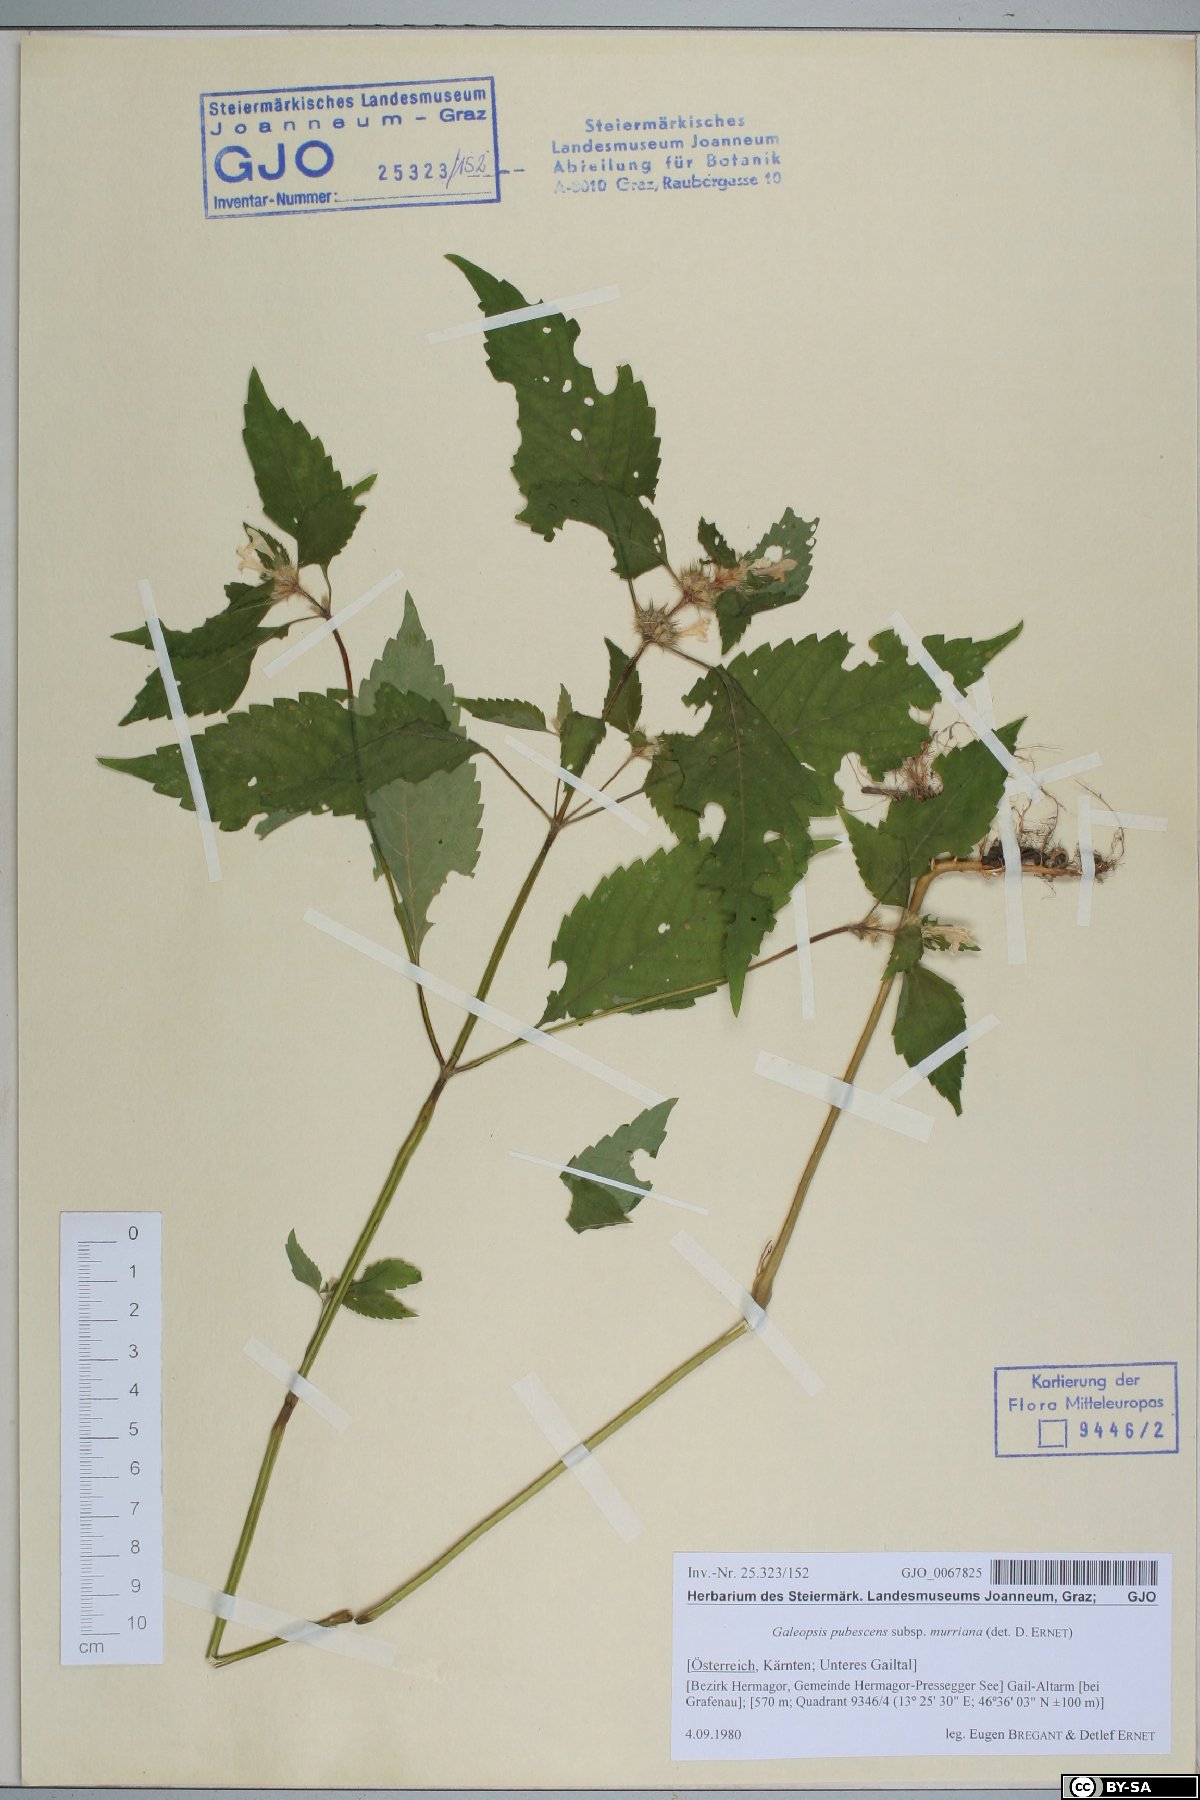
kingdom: Plantae
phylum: Tracheophyta
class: Magnoliopsida
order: Lamiales
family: Lamiaceae
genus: Galeopsis
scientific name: Galeopsis pubescens
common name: Downy hemp-nettle
